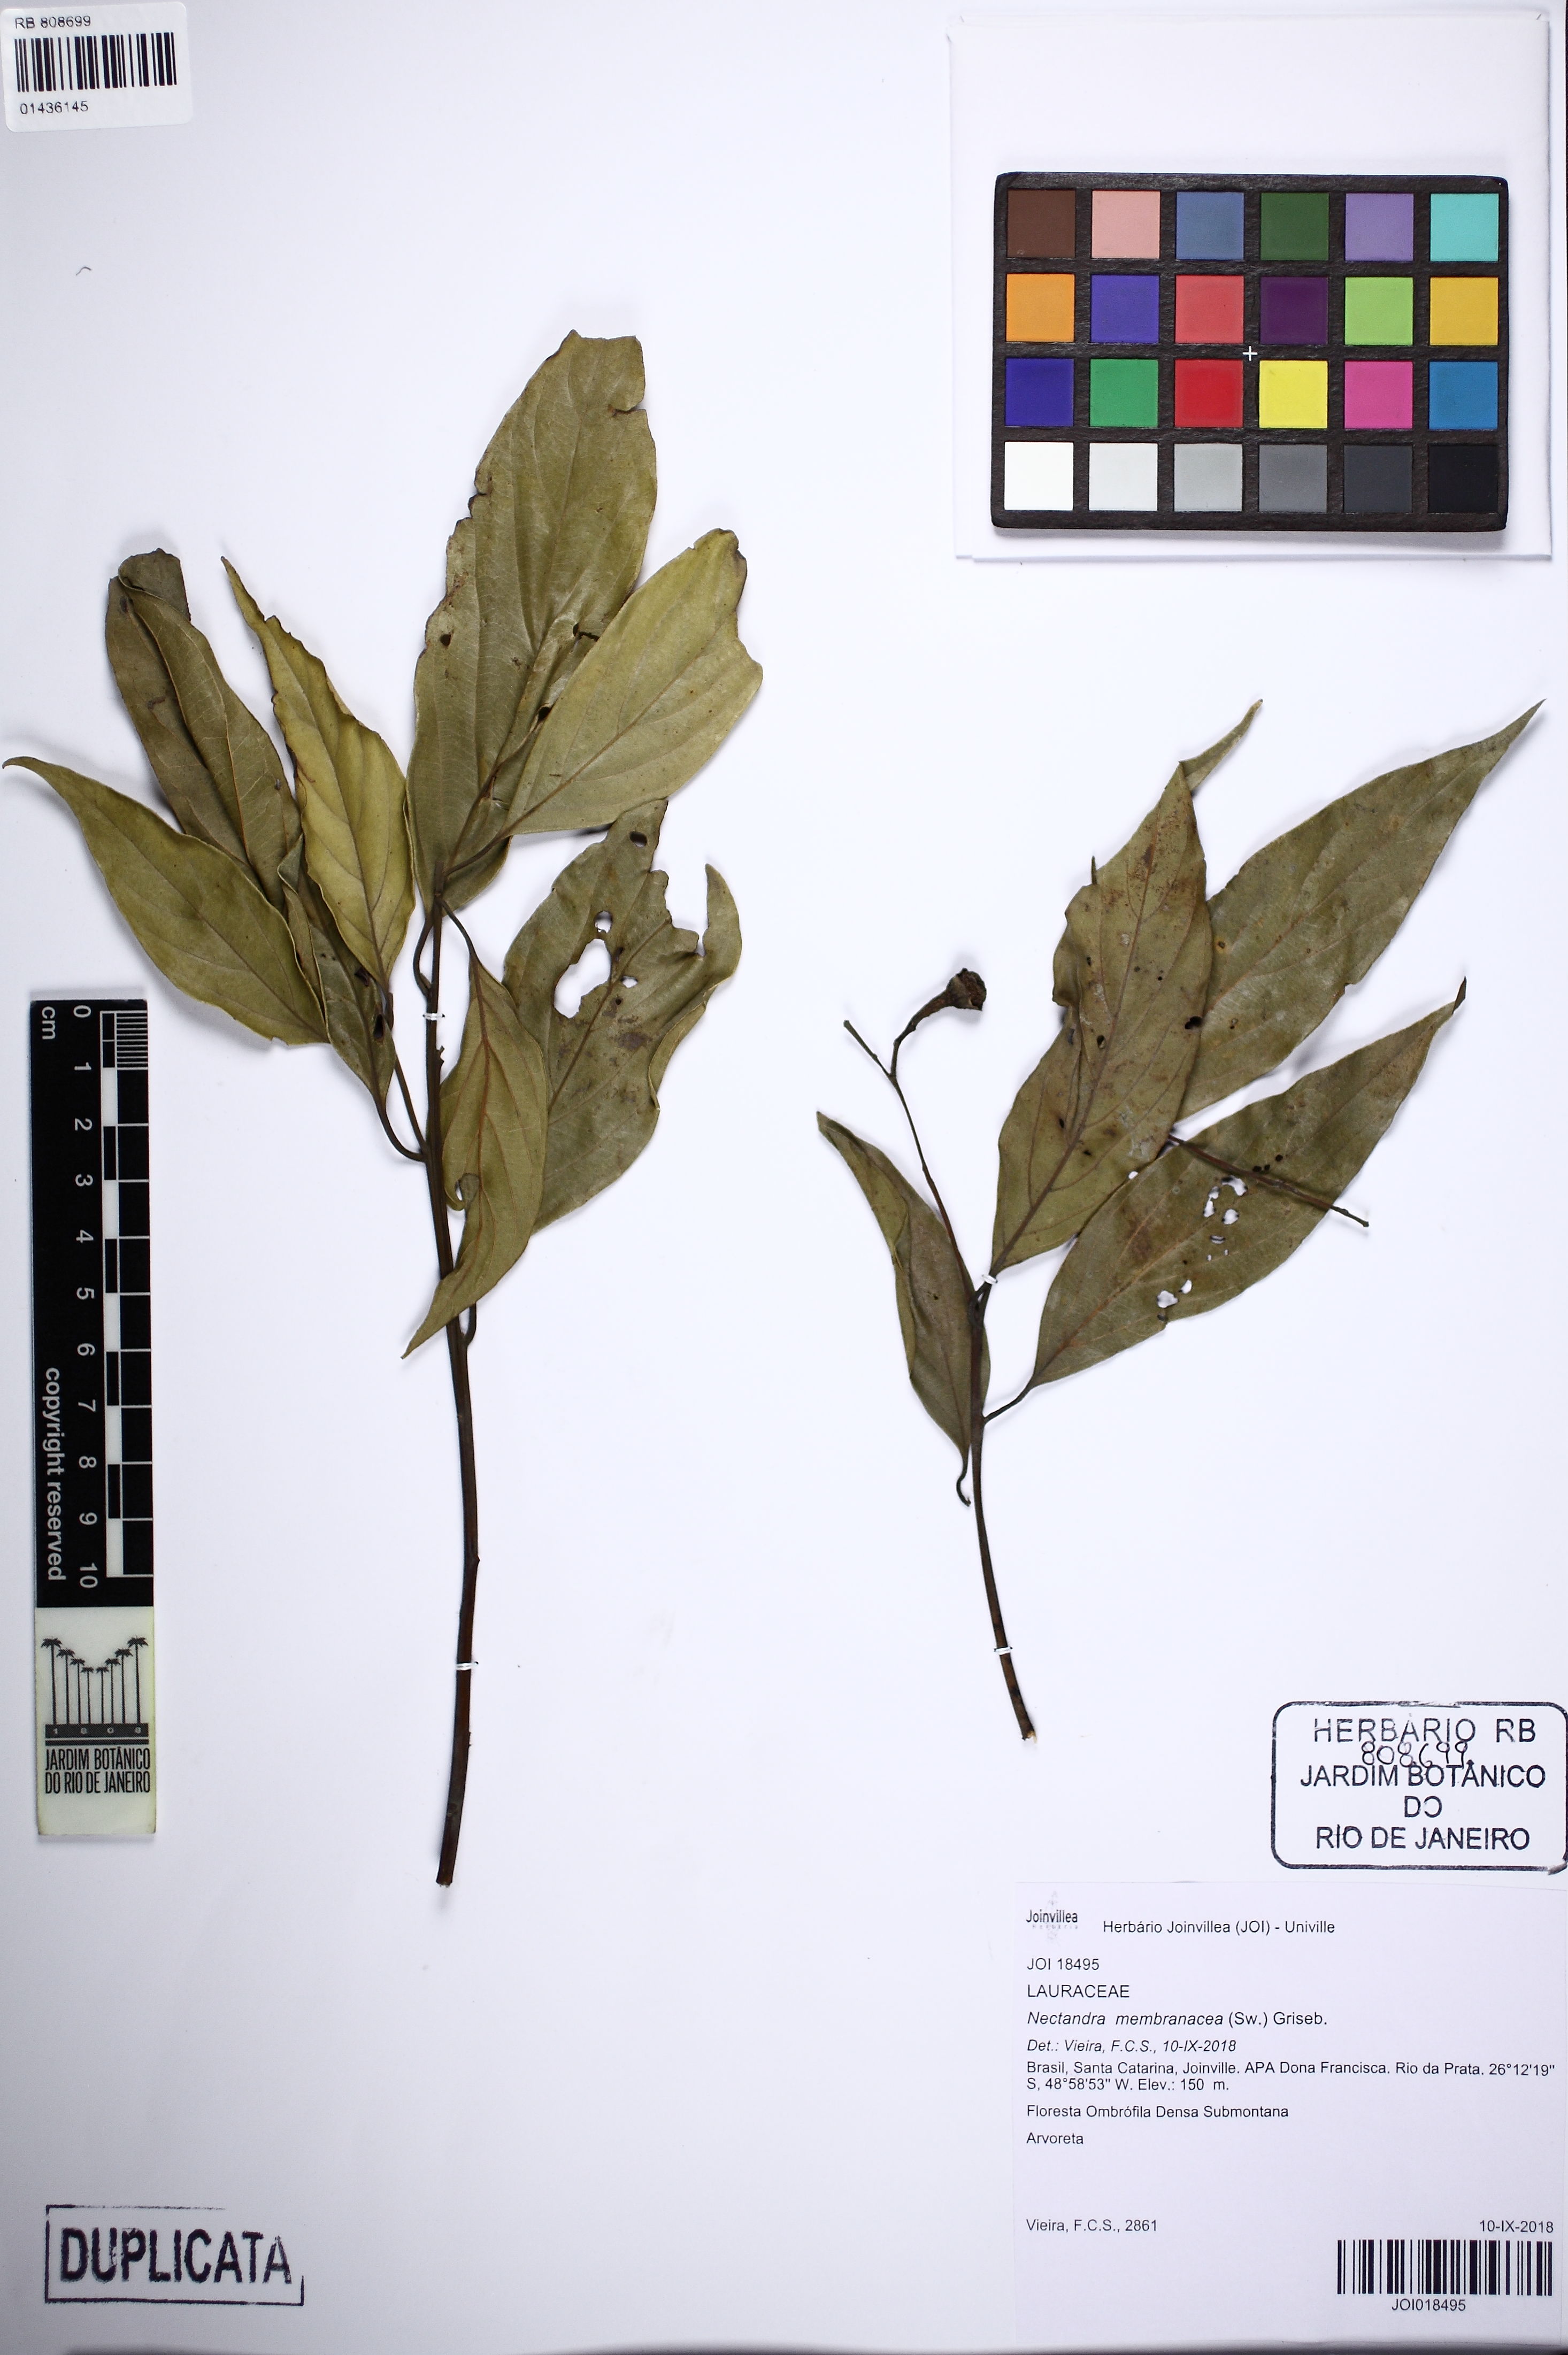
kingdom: Plantae
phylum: Tracheophyta
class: Magnoliopsida
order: Laurales
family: Lauraceae
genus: Nectandra
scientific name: Nectandra membranacea
